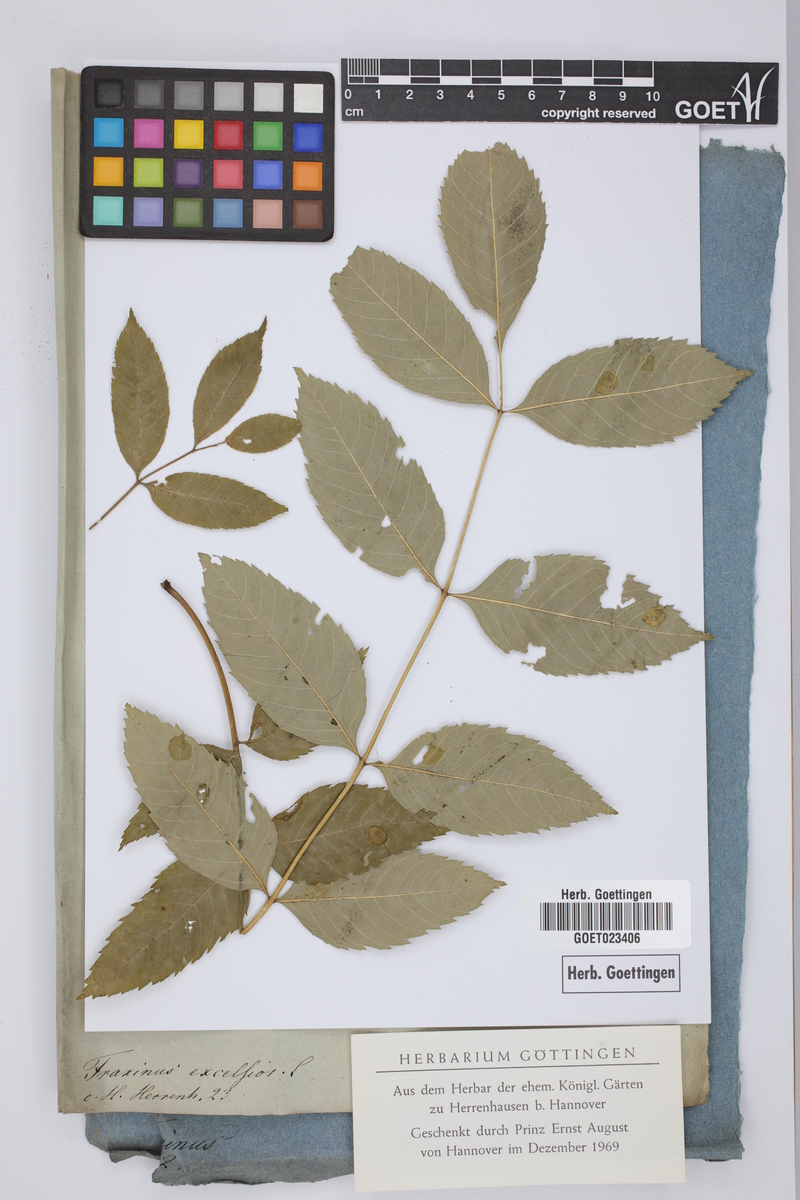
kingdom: Plantae
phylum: Tracheophyta
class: Magnoliopsida
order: Lamiales
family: Oleaceae
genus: Fraxinus
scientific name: Fraxinus excelsior
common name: European ash
